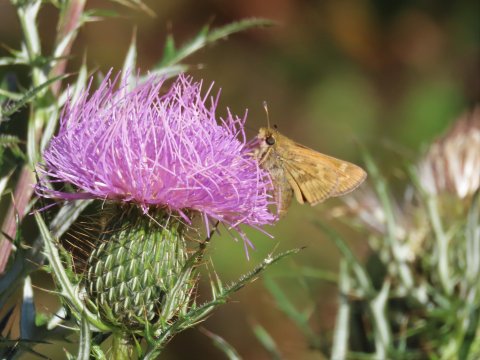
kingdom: Animalia
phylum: Arthropoda
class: Insecta
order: Lepidoptera
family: Hesperiidae
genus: Atalopedes
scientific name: Atalopedes campestris
